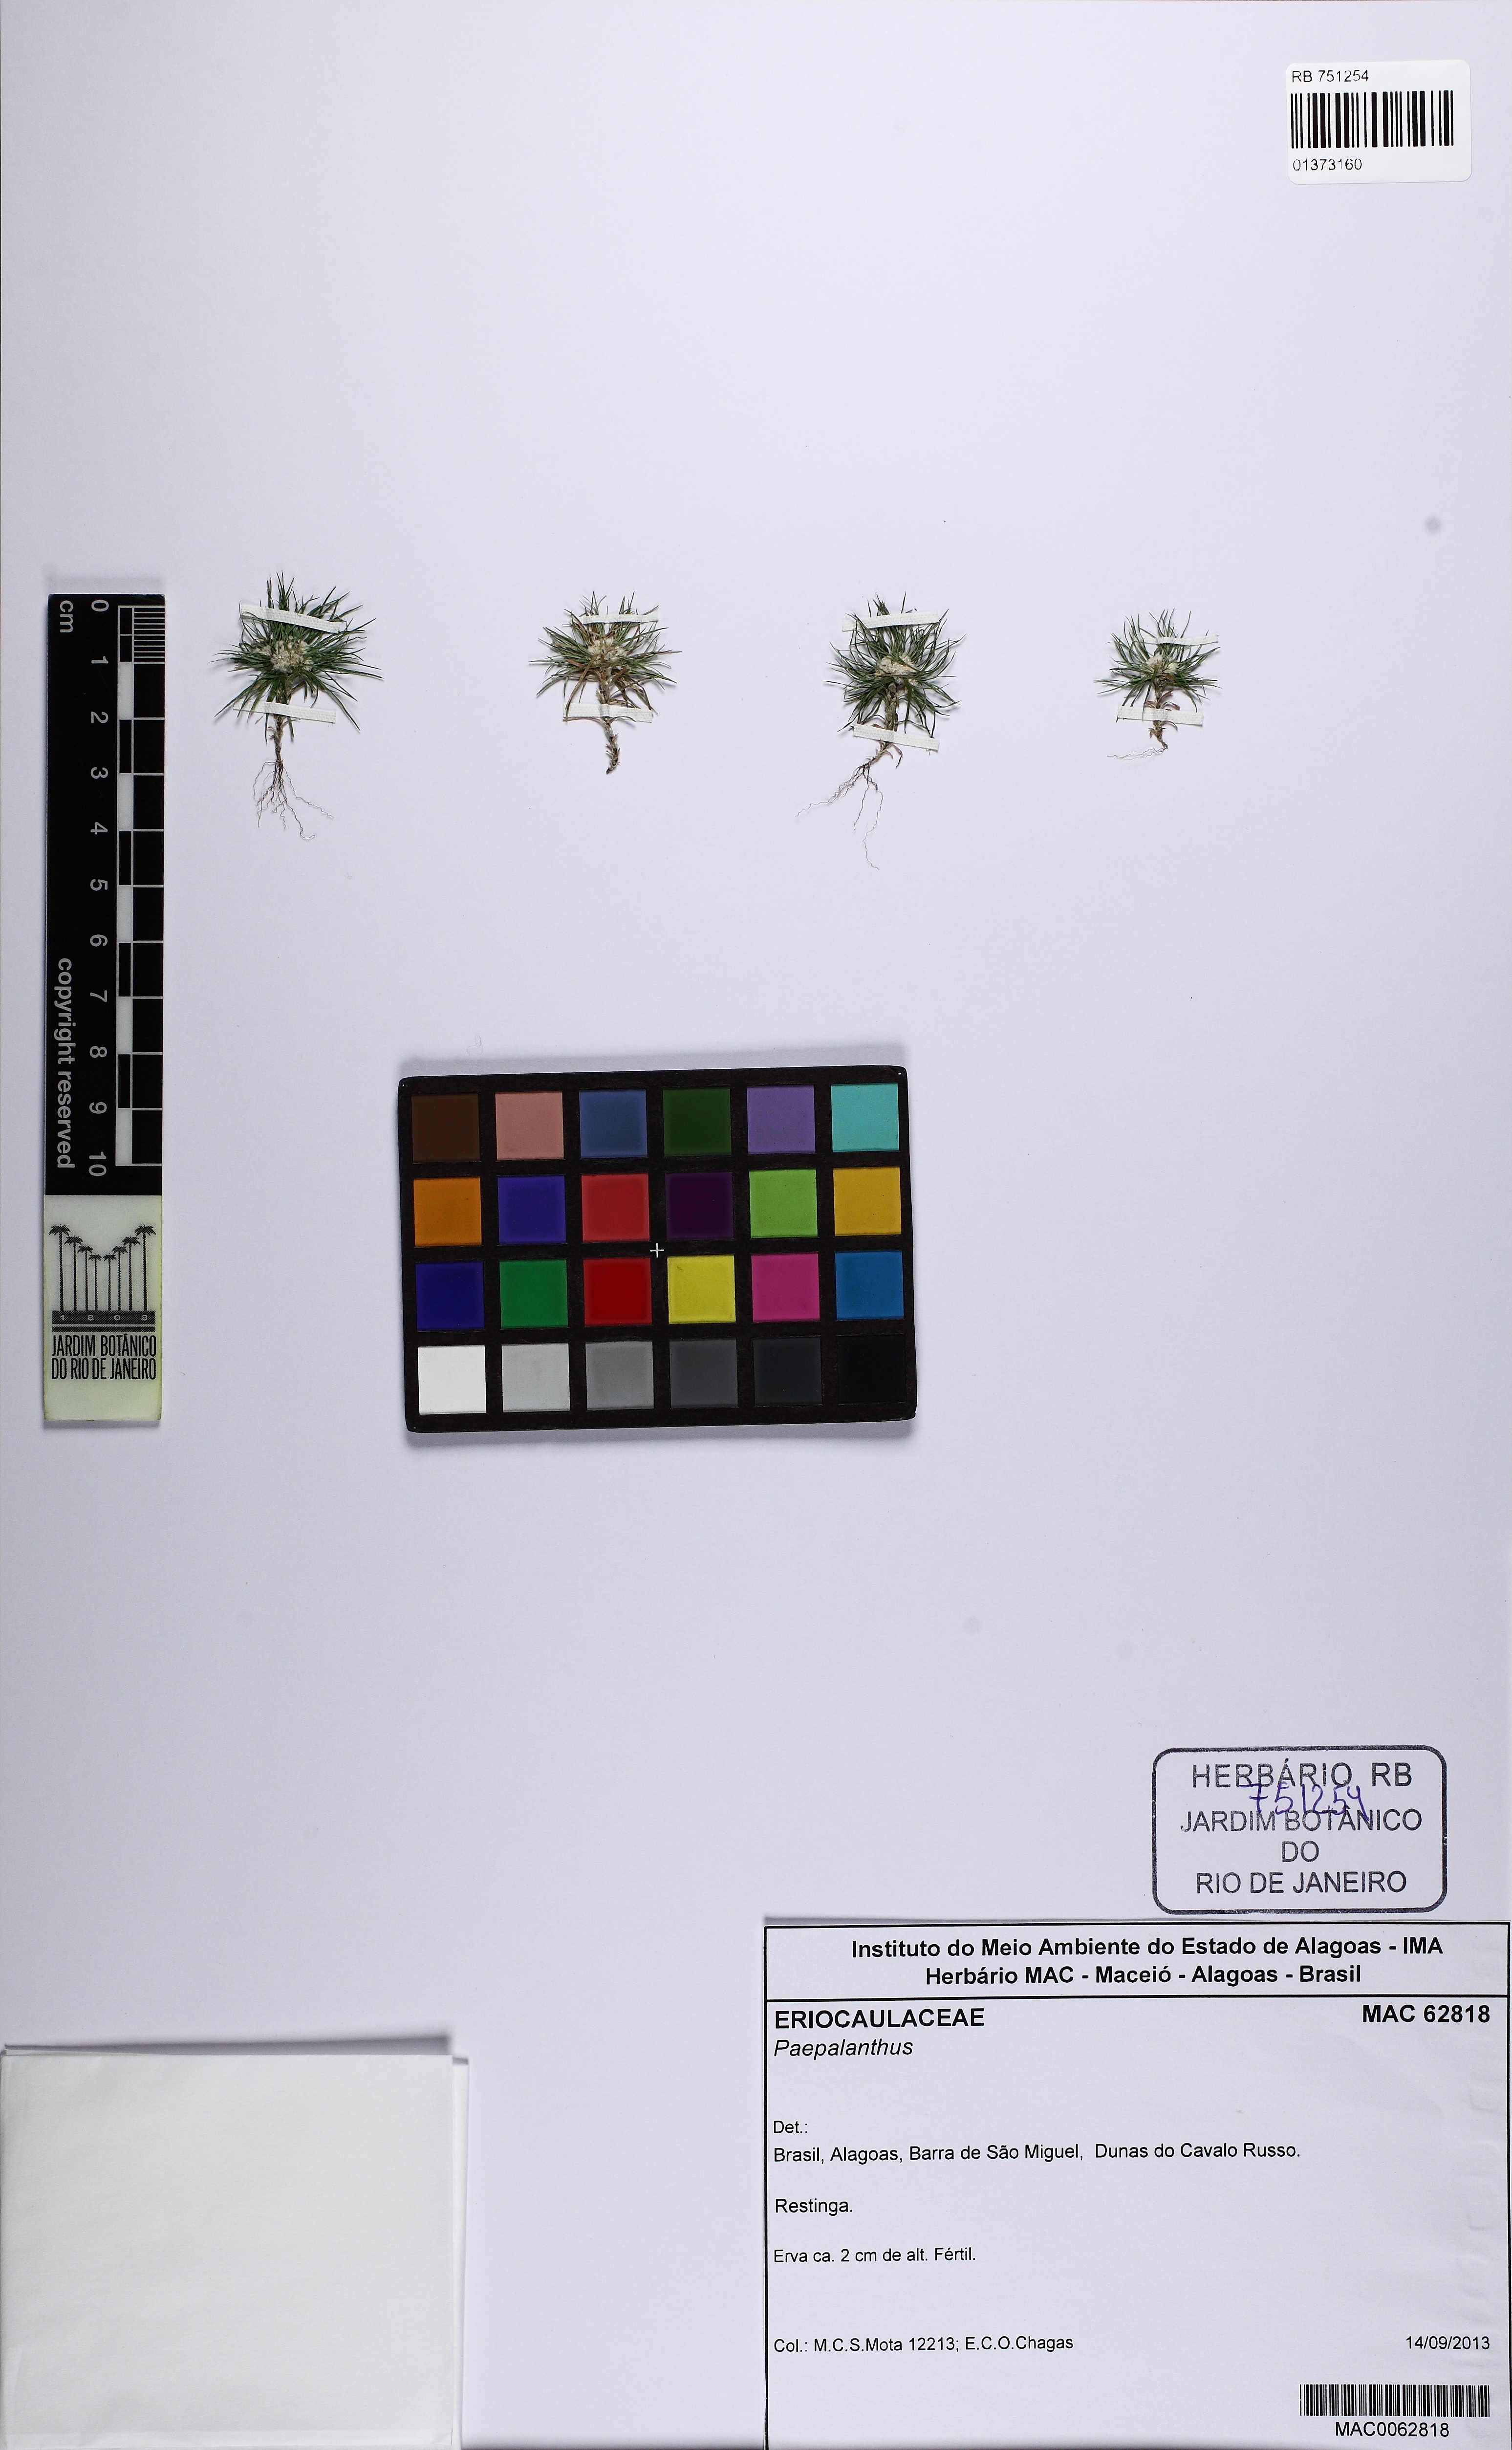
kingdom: Plantae
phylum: Tracheophyta
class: Liliopsida
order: Poales
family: Eriocaulaceae
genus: Paepalanthus
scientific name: Paepalanthus
